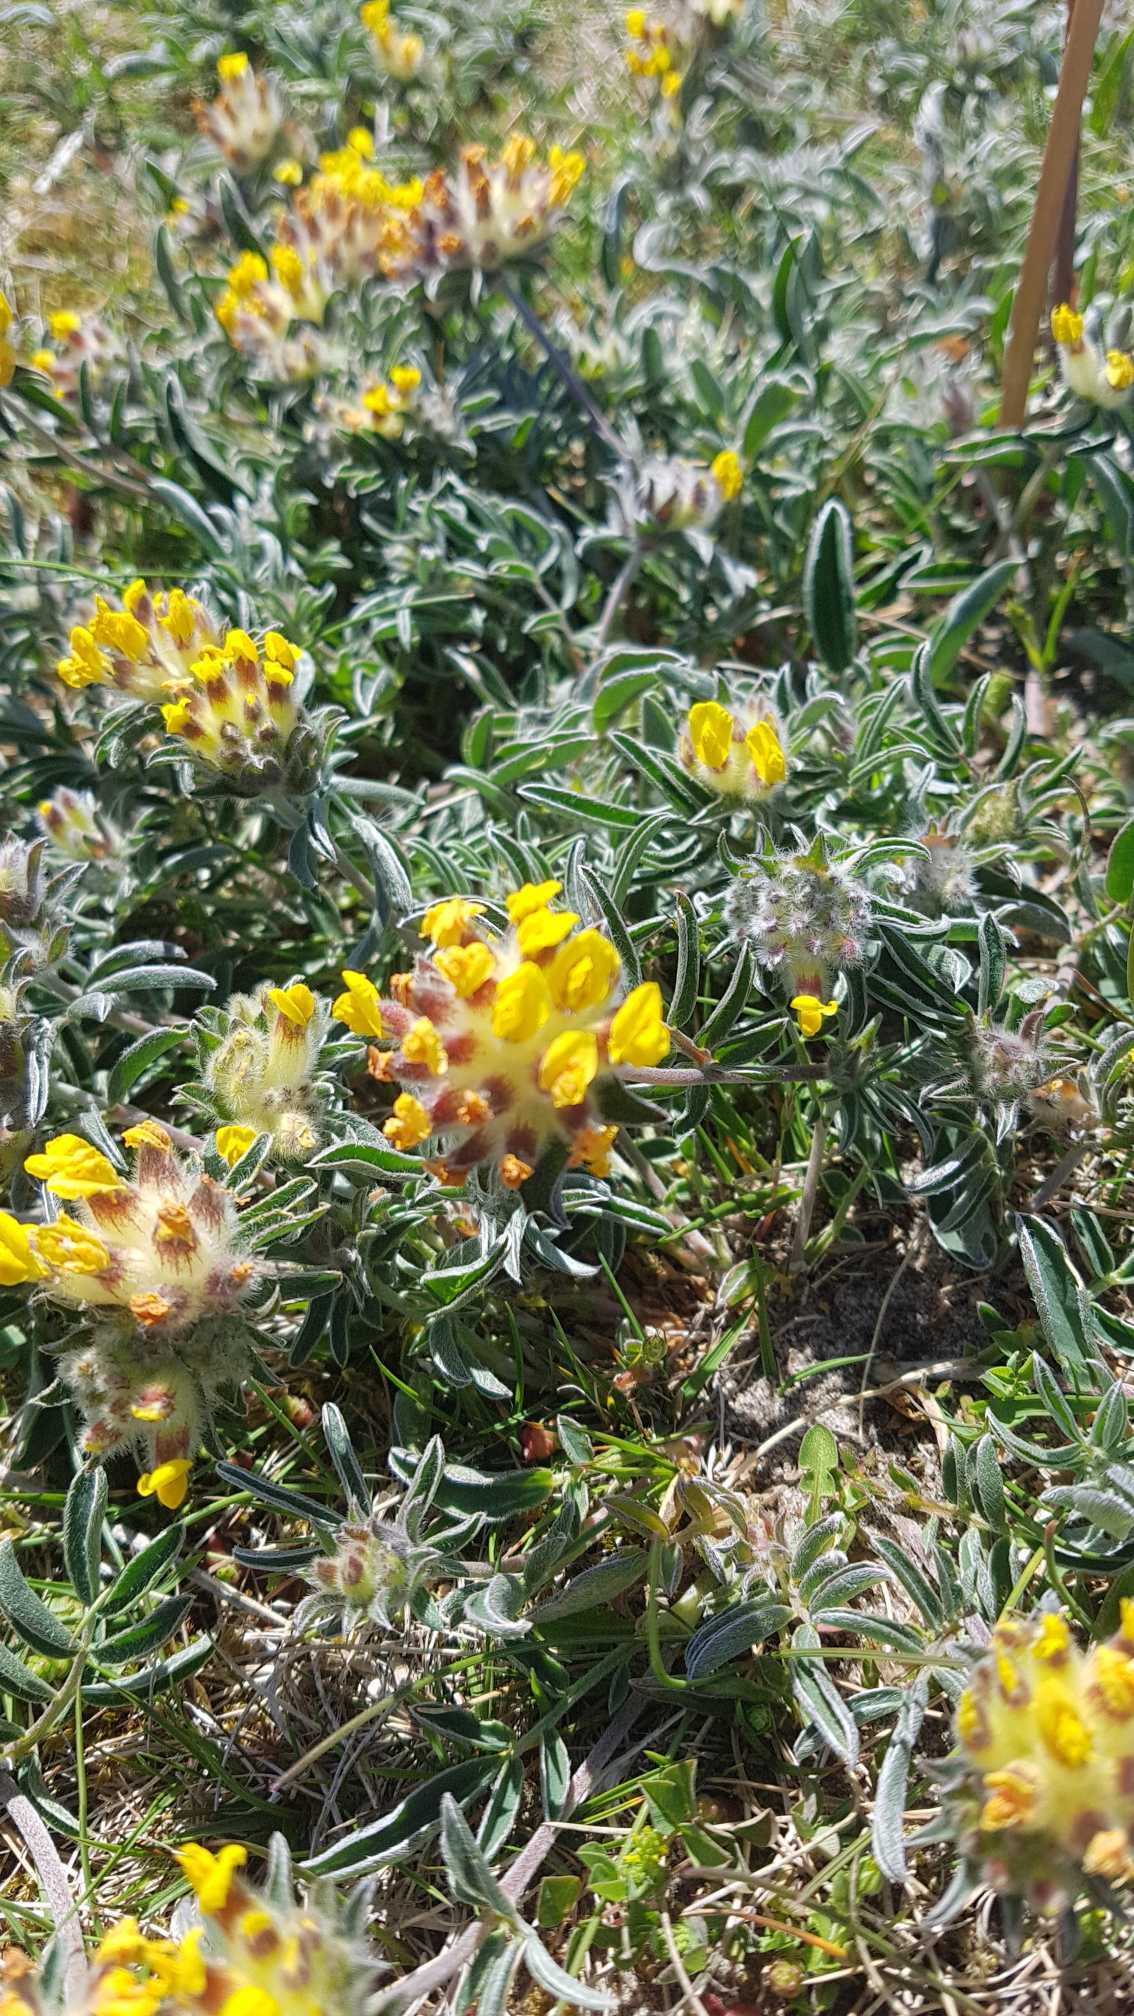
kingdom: Plantae
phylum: Tracheophyta
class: Magnoliopsida
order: Fabales
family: Fabaceae
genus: Anthyllis
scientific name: Anthyllis vulneraria
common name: Rundbælg
